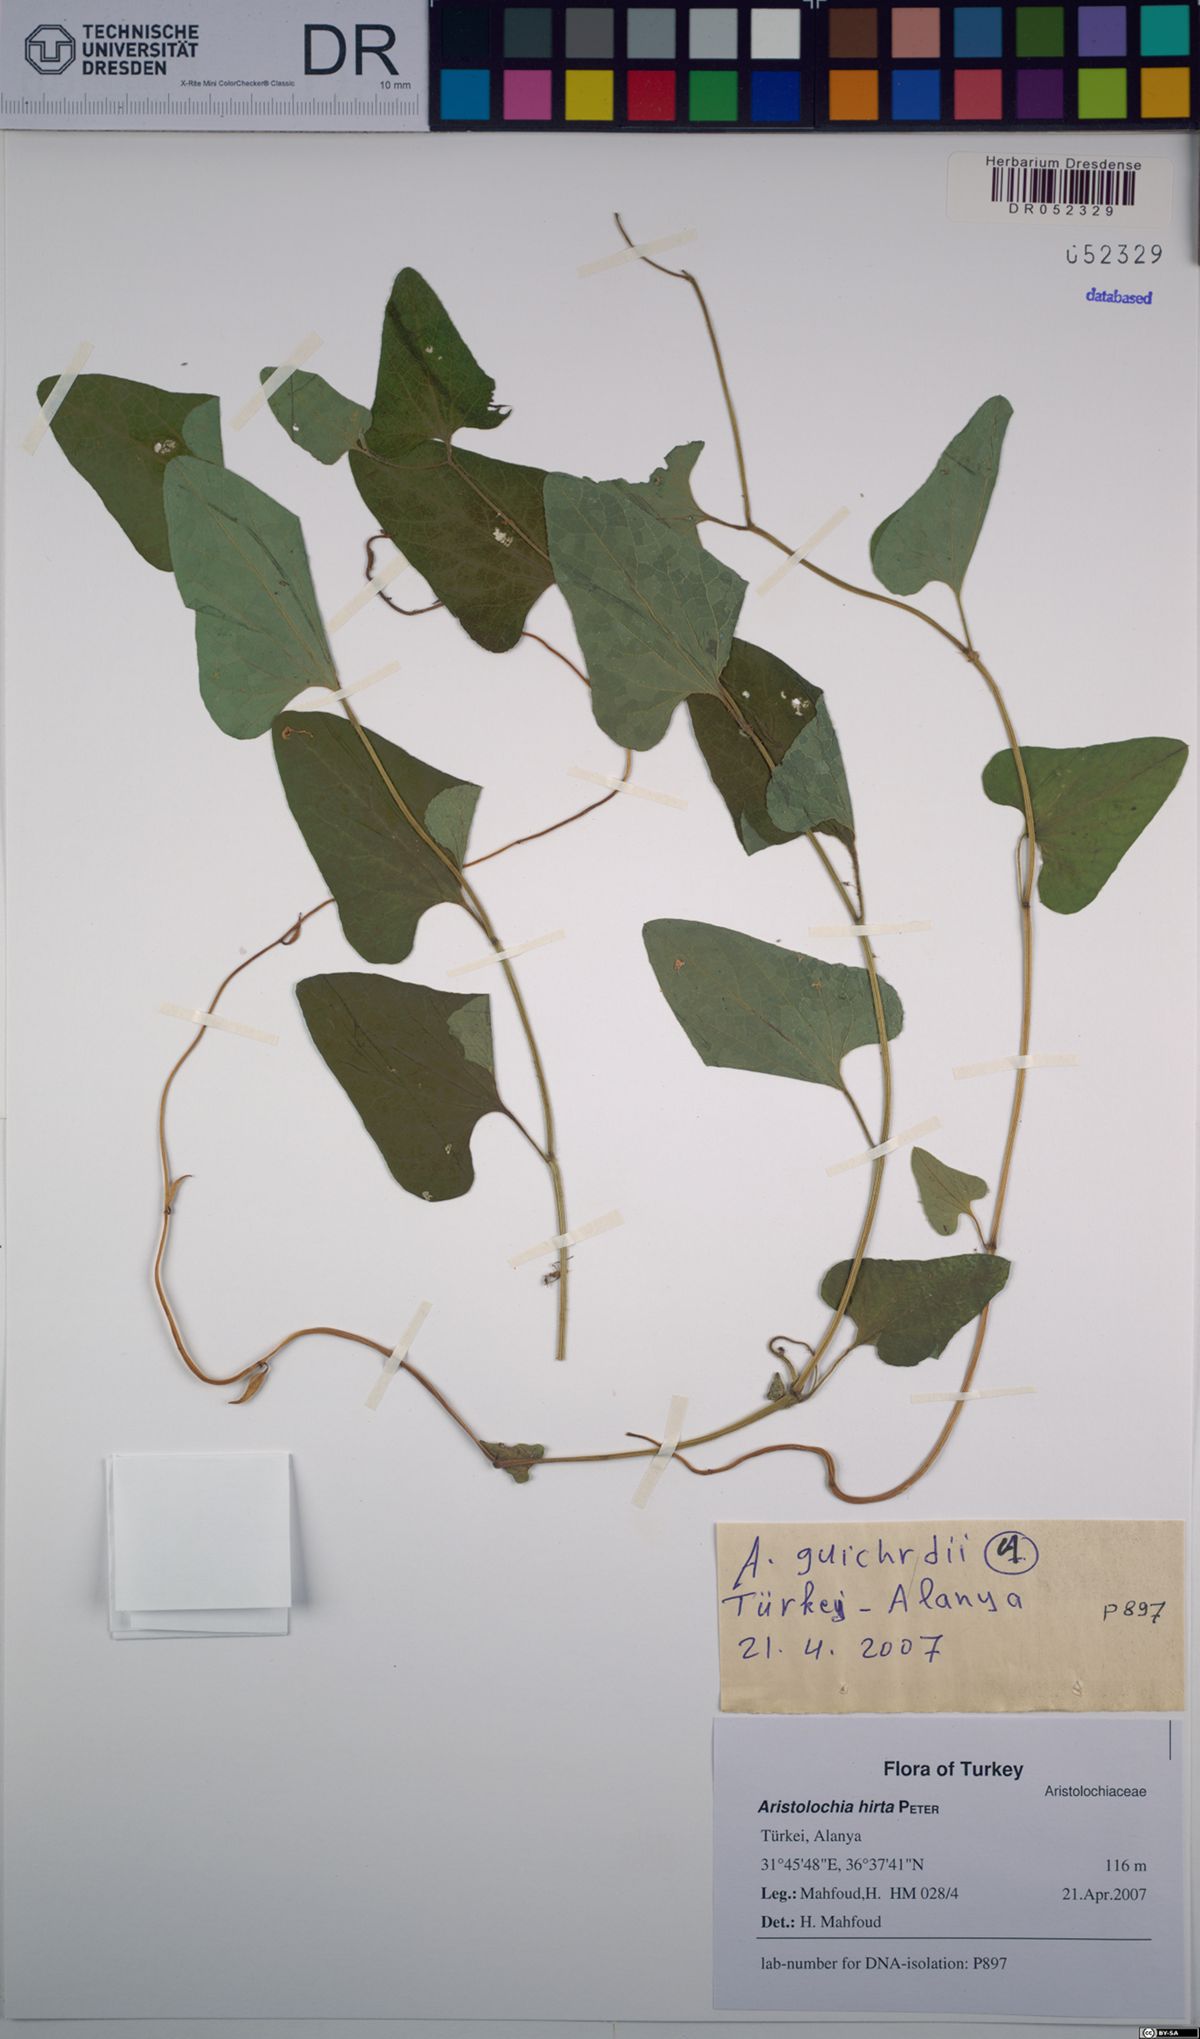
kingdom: Plantae
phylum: Tracheophyta
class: Magnoliopsida
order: Piperales
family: Aristolochiaceae
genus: Aristolochia
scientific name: Aristolochia hockii
